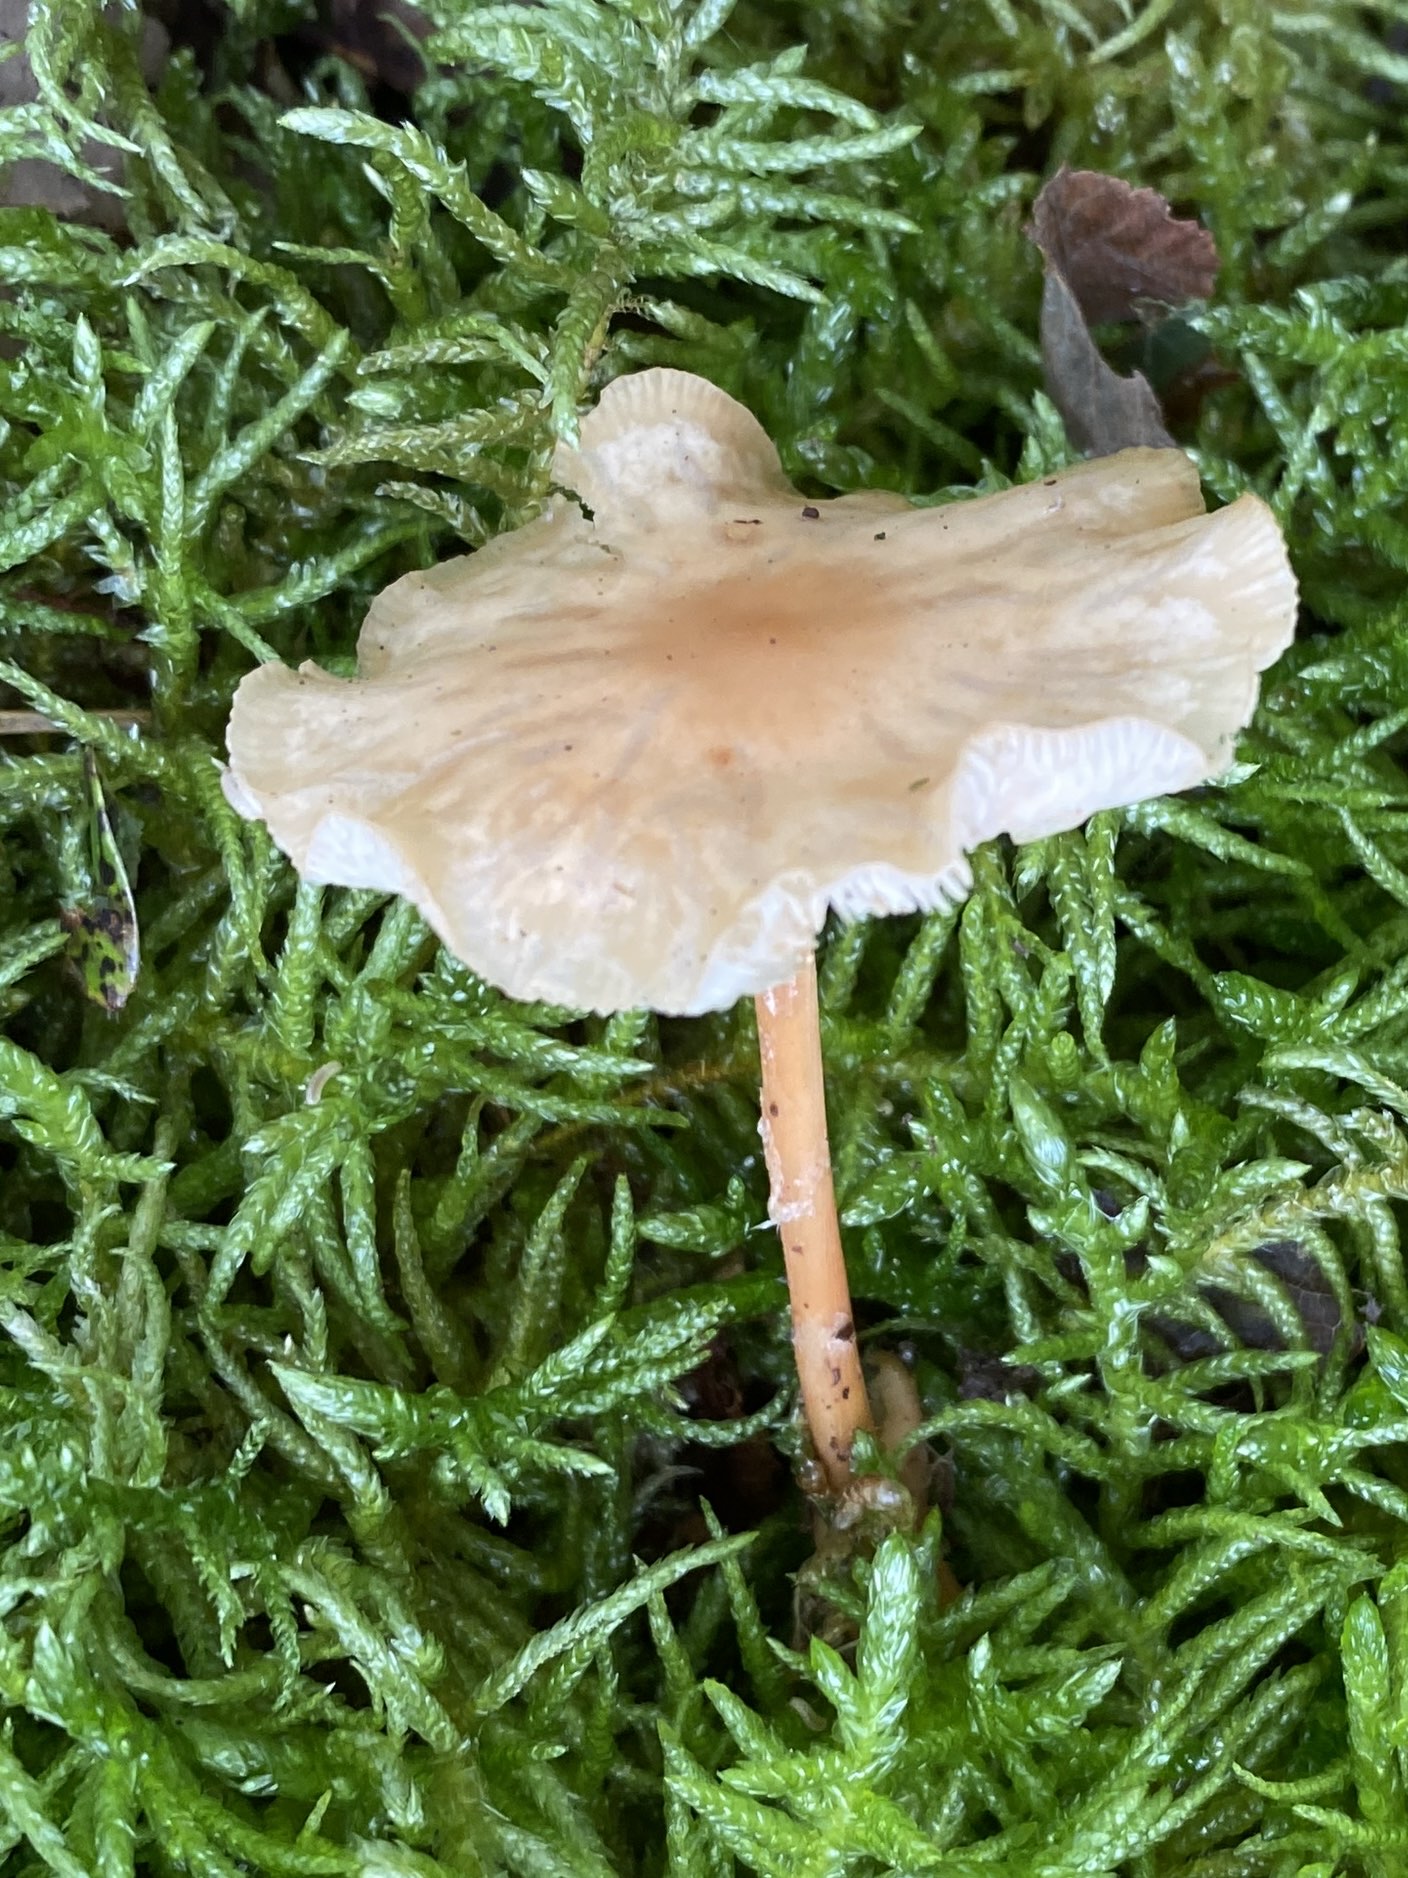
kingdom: Fungi
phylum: Basidiomycota
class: Agaricomycetes
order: Agaricales
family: Omphalotaceae
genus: Gymnopus
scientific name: Gymnopus dryophilus
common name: løv-fladhat
